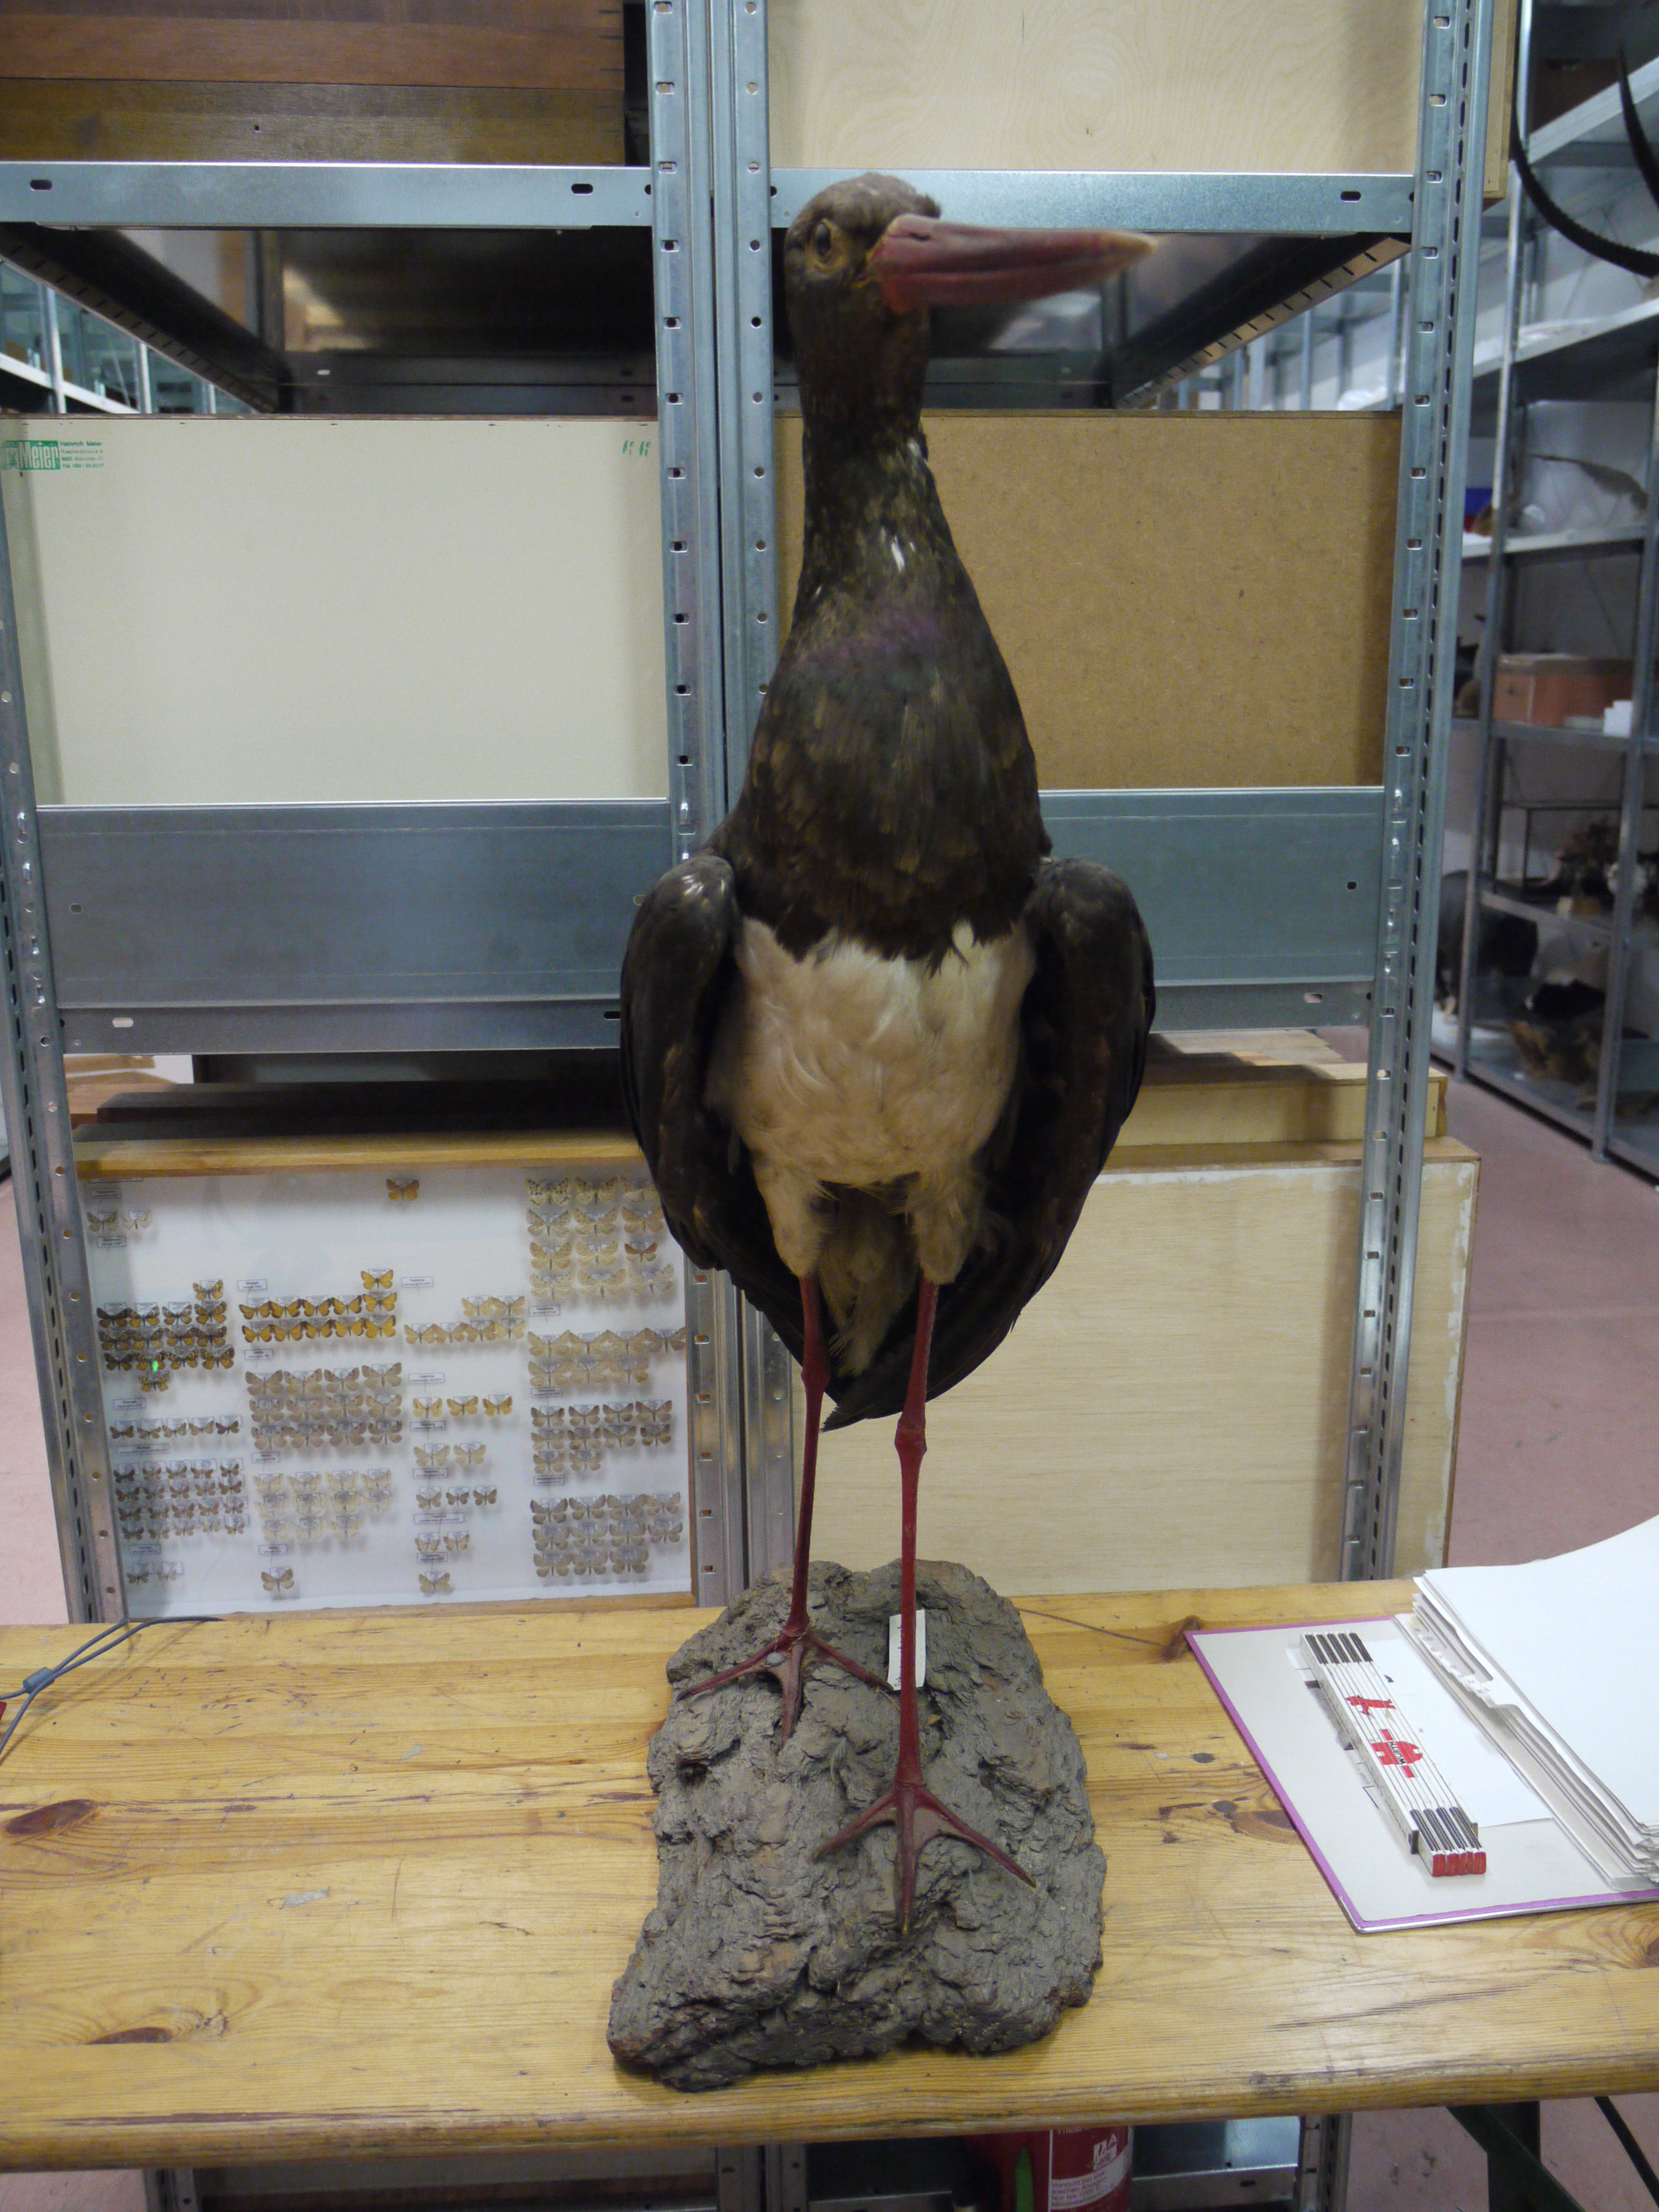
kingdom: Animalia
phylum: Chordata
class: Aves
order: Ciconiiformes
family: Ciconiidae
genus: Ciconia
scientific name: Ciconia nigra
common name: Black stork
